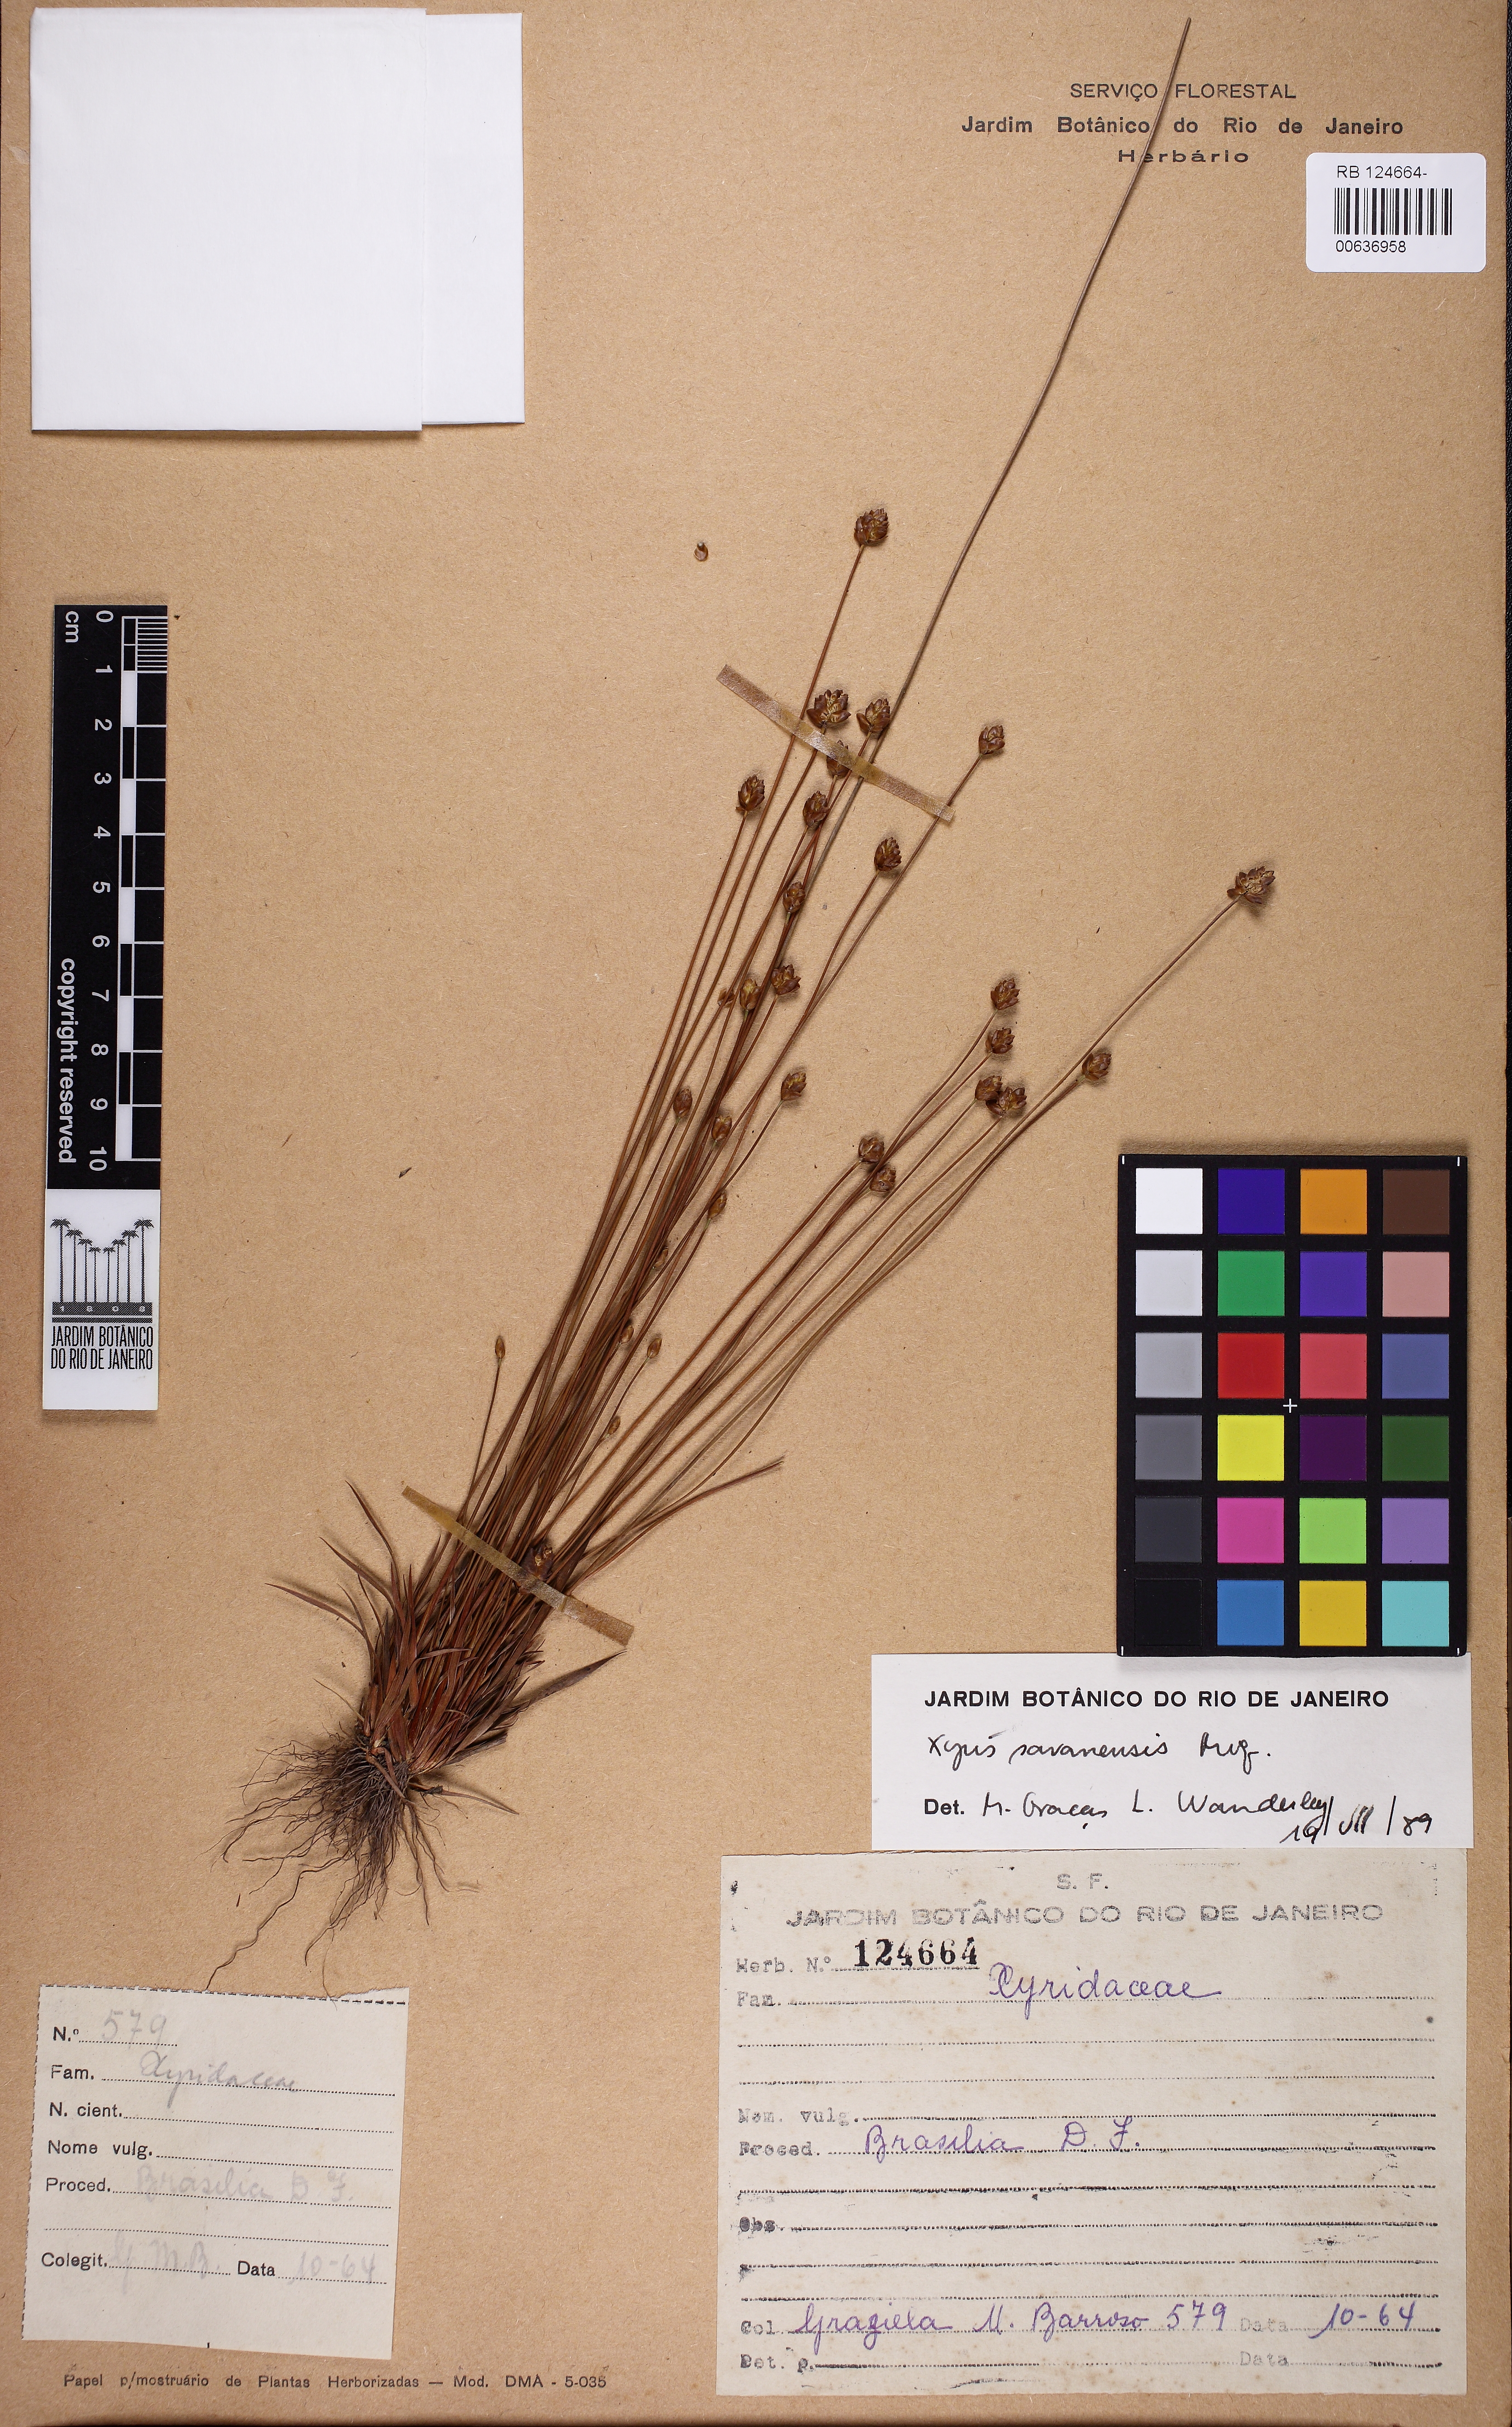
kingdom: Plantae
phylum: Tracheophyta
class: Liliopsida
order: Poales
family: Xyridaceae
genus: Xyris
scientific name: Xyris savanensis
